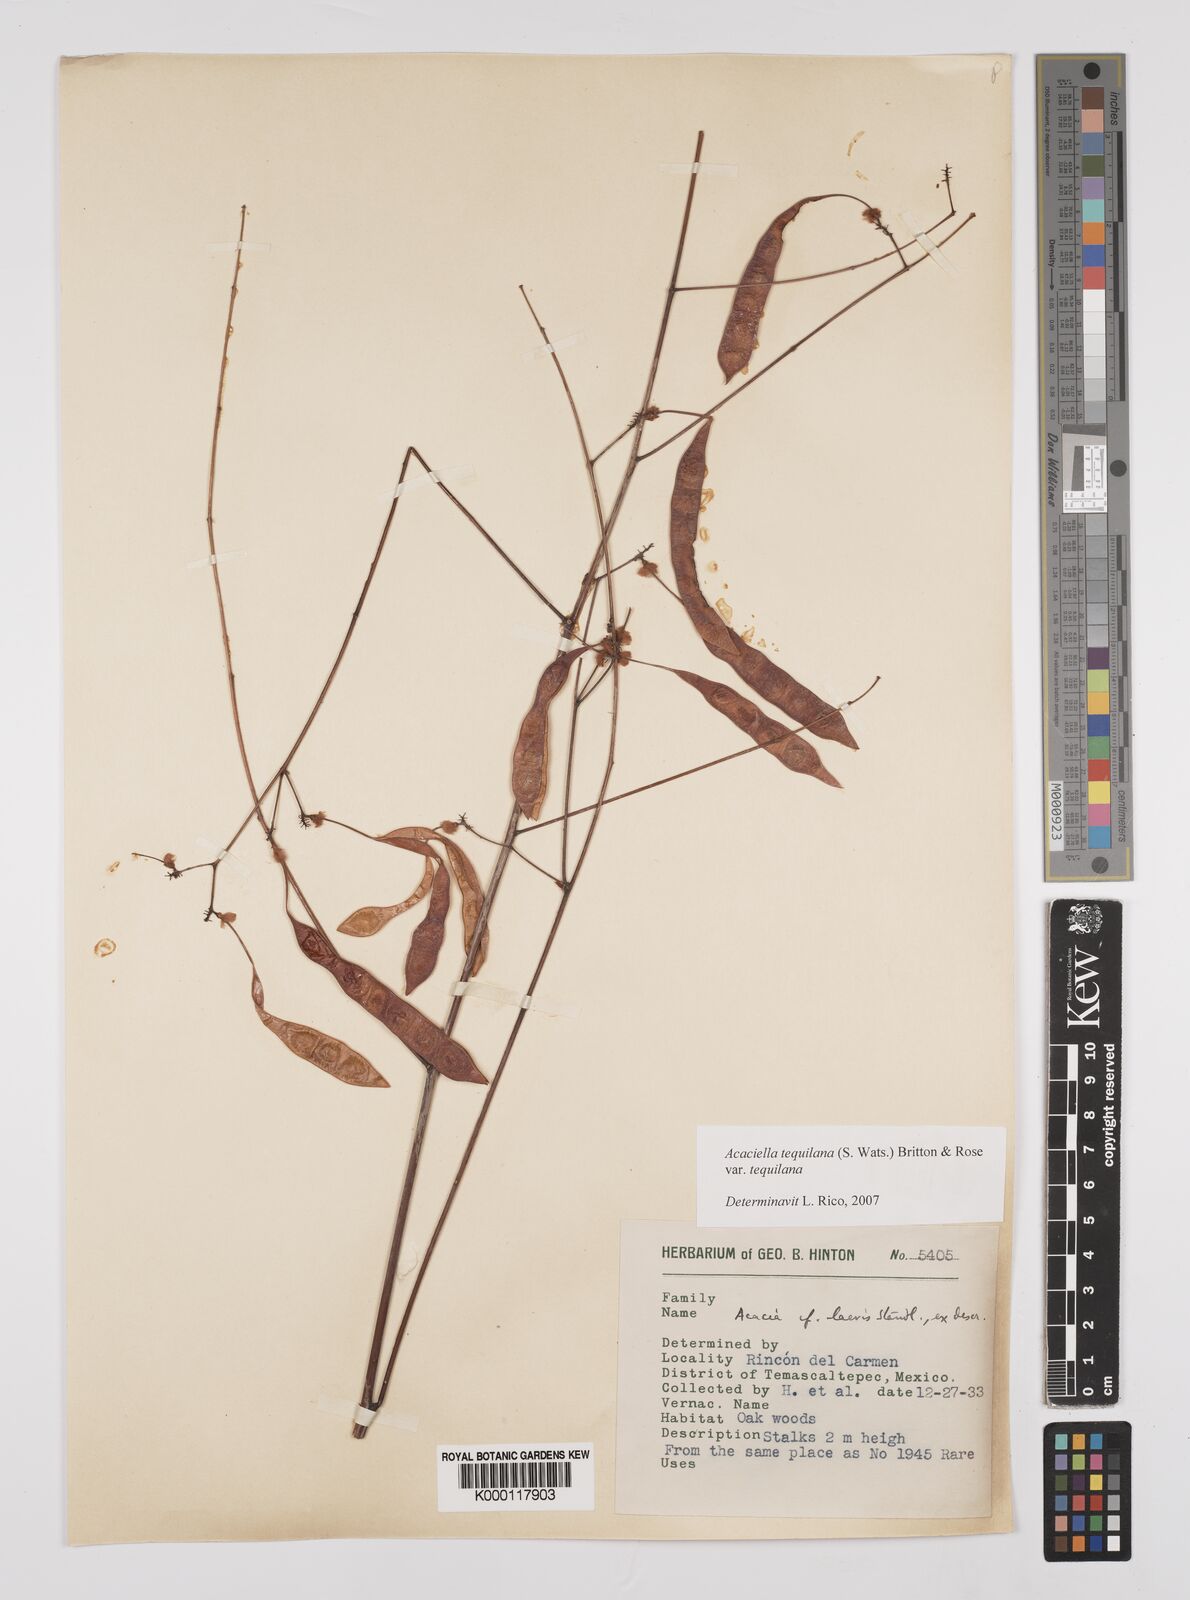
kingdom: Plantae
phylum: Tracheophyta
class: Magnoliopsida
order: Fabales
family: Fabaceae
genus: Acaciella
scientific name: Acaciella tequilana
